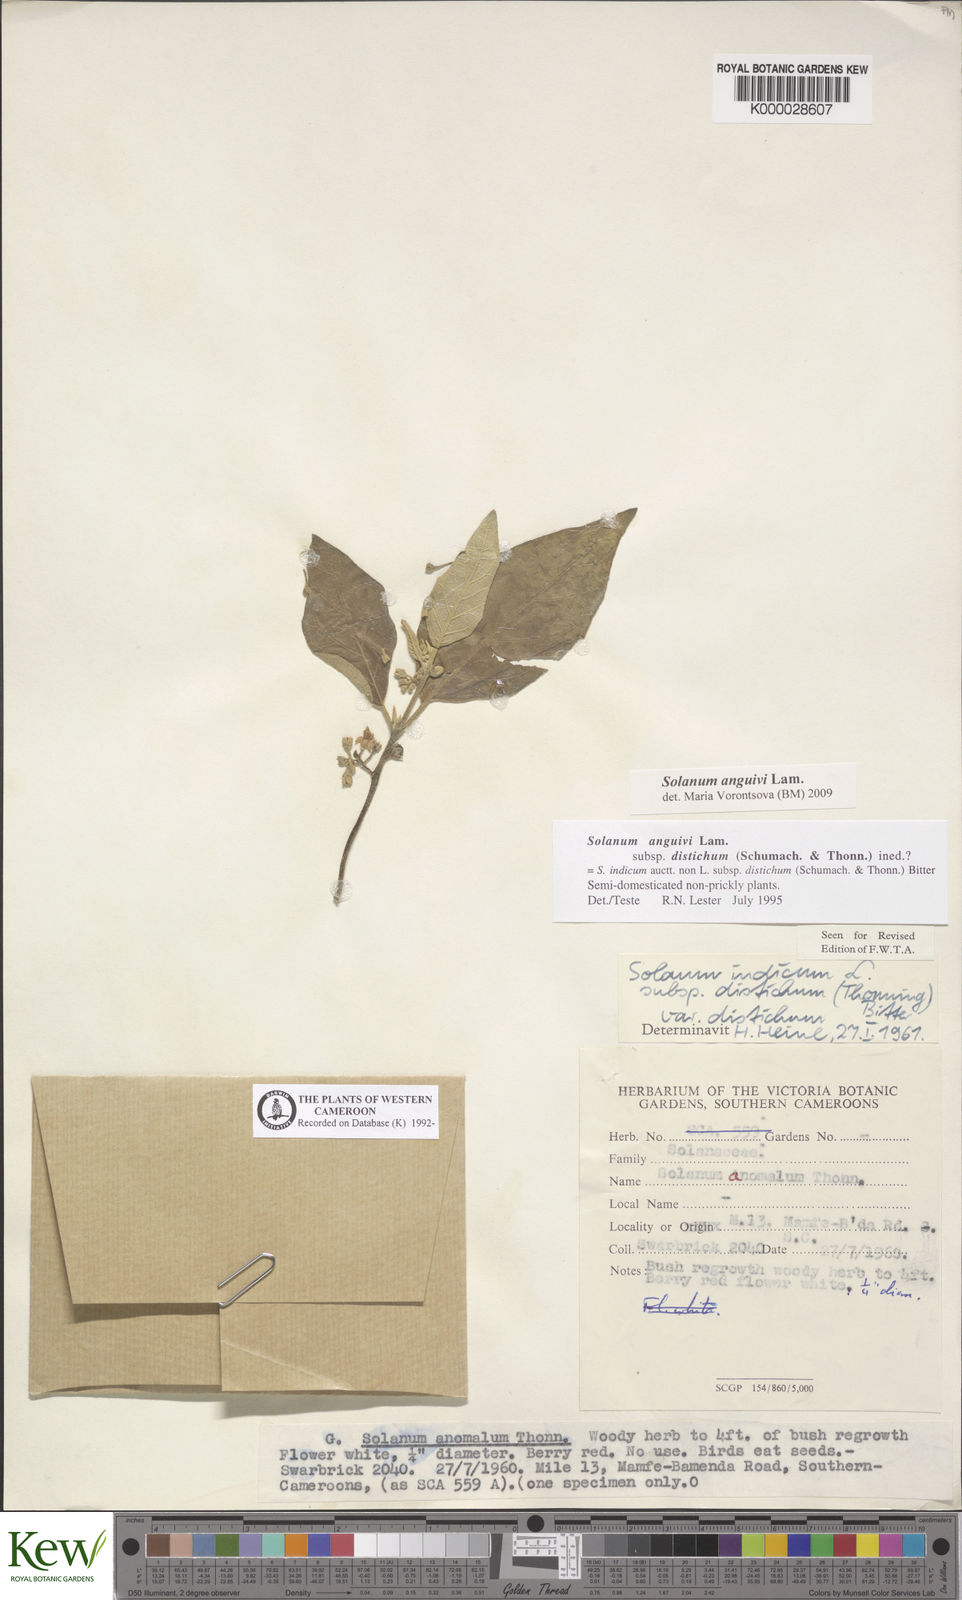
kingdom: Plantae
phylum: Tracheophyta
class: Magnoliopsida
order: Solanales
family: Solanaceae
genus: Solanum
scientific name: Solanum anguivi
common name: Forest bitterberry
